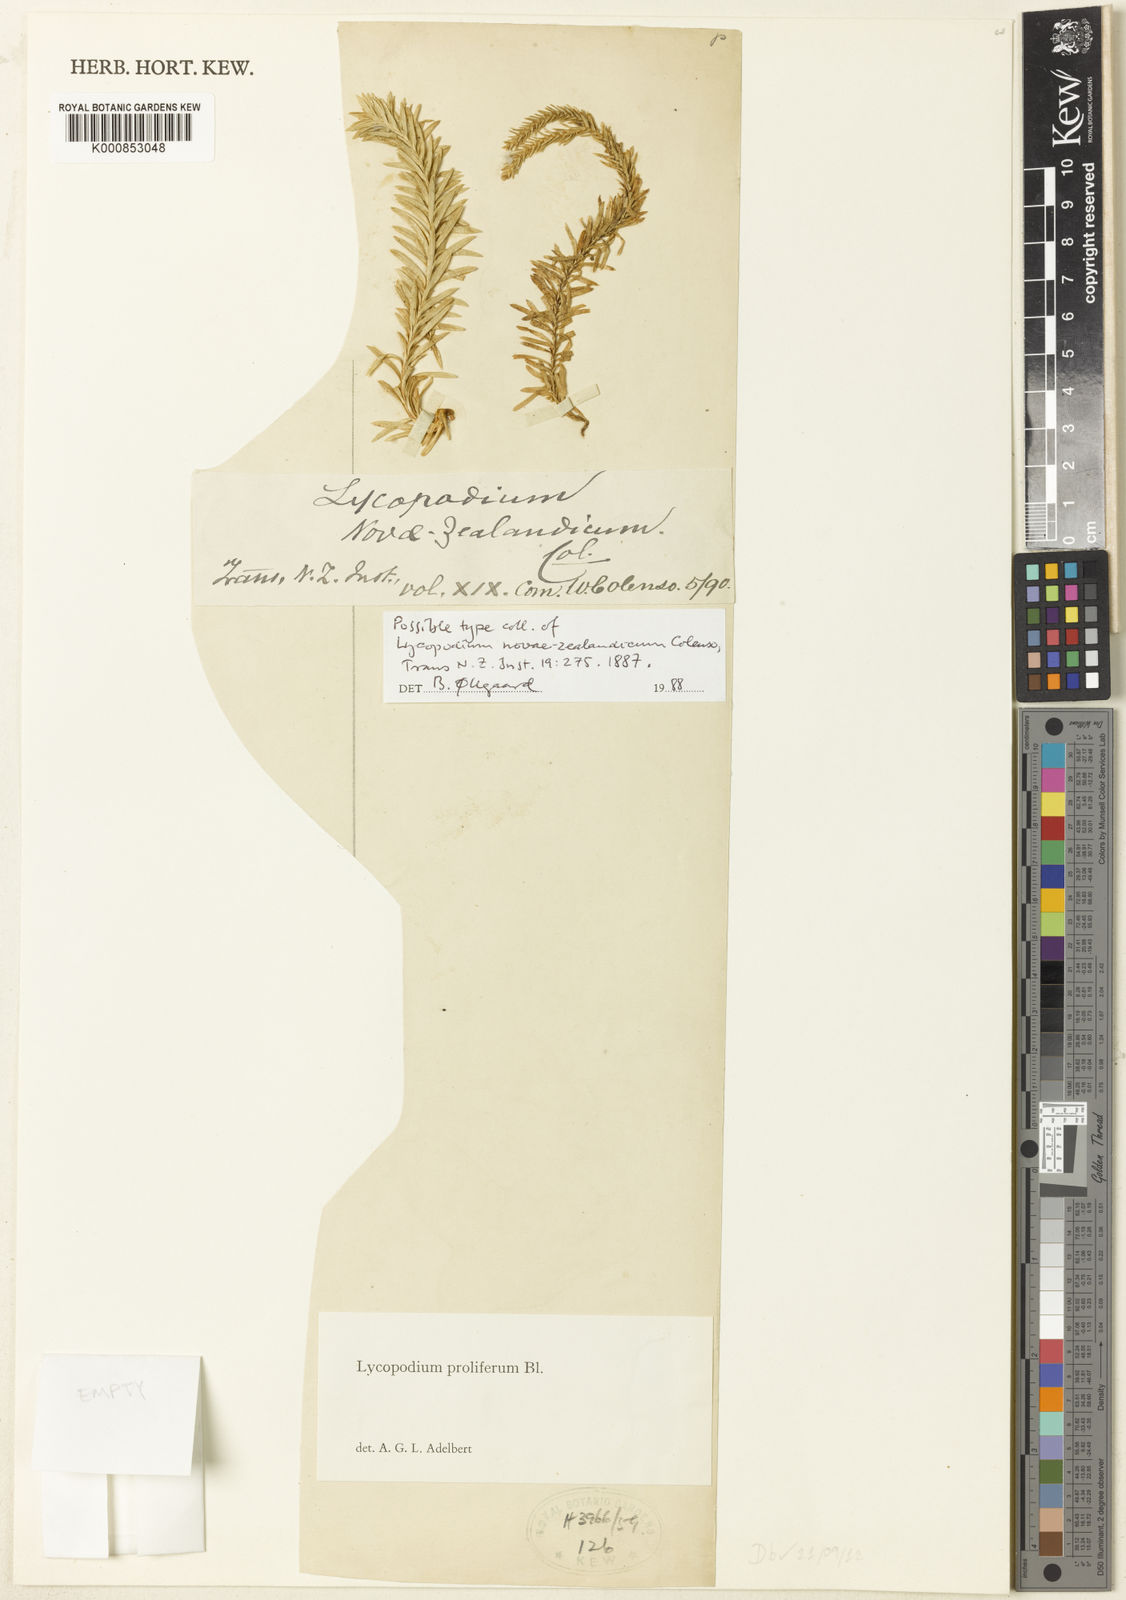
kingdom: Plantae
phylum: Tracheophyta
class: Lycopodiopsida
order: Lycopodiales
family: Lycopodiaceae
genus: Lycopodium
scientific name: Lycopodium
